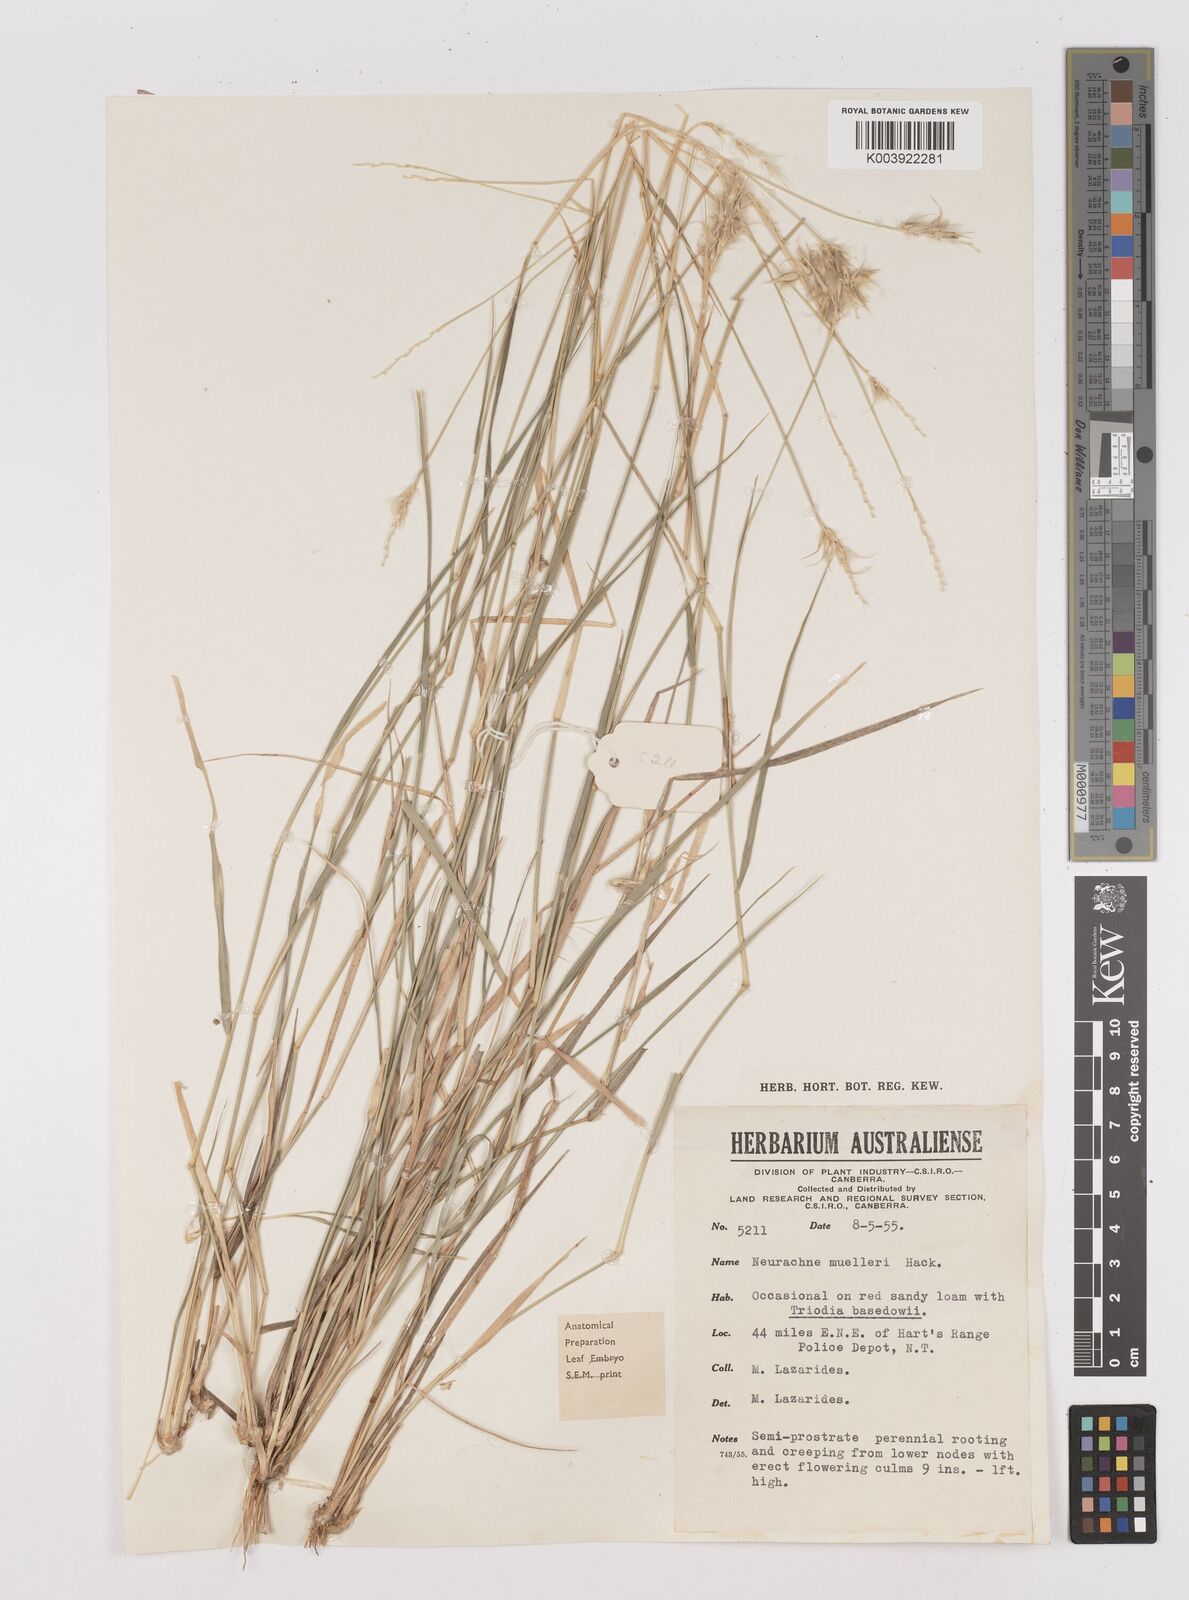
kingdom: Plantae
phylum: Tracheophyta
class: Liliopsida
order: Poales
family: Poaceae
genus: Neurachne
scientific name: Neurachne muelleri
